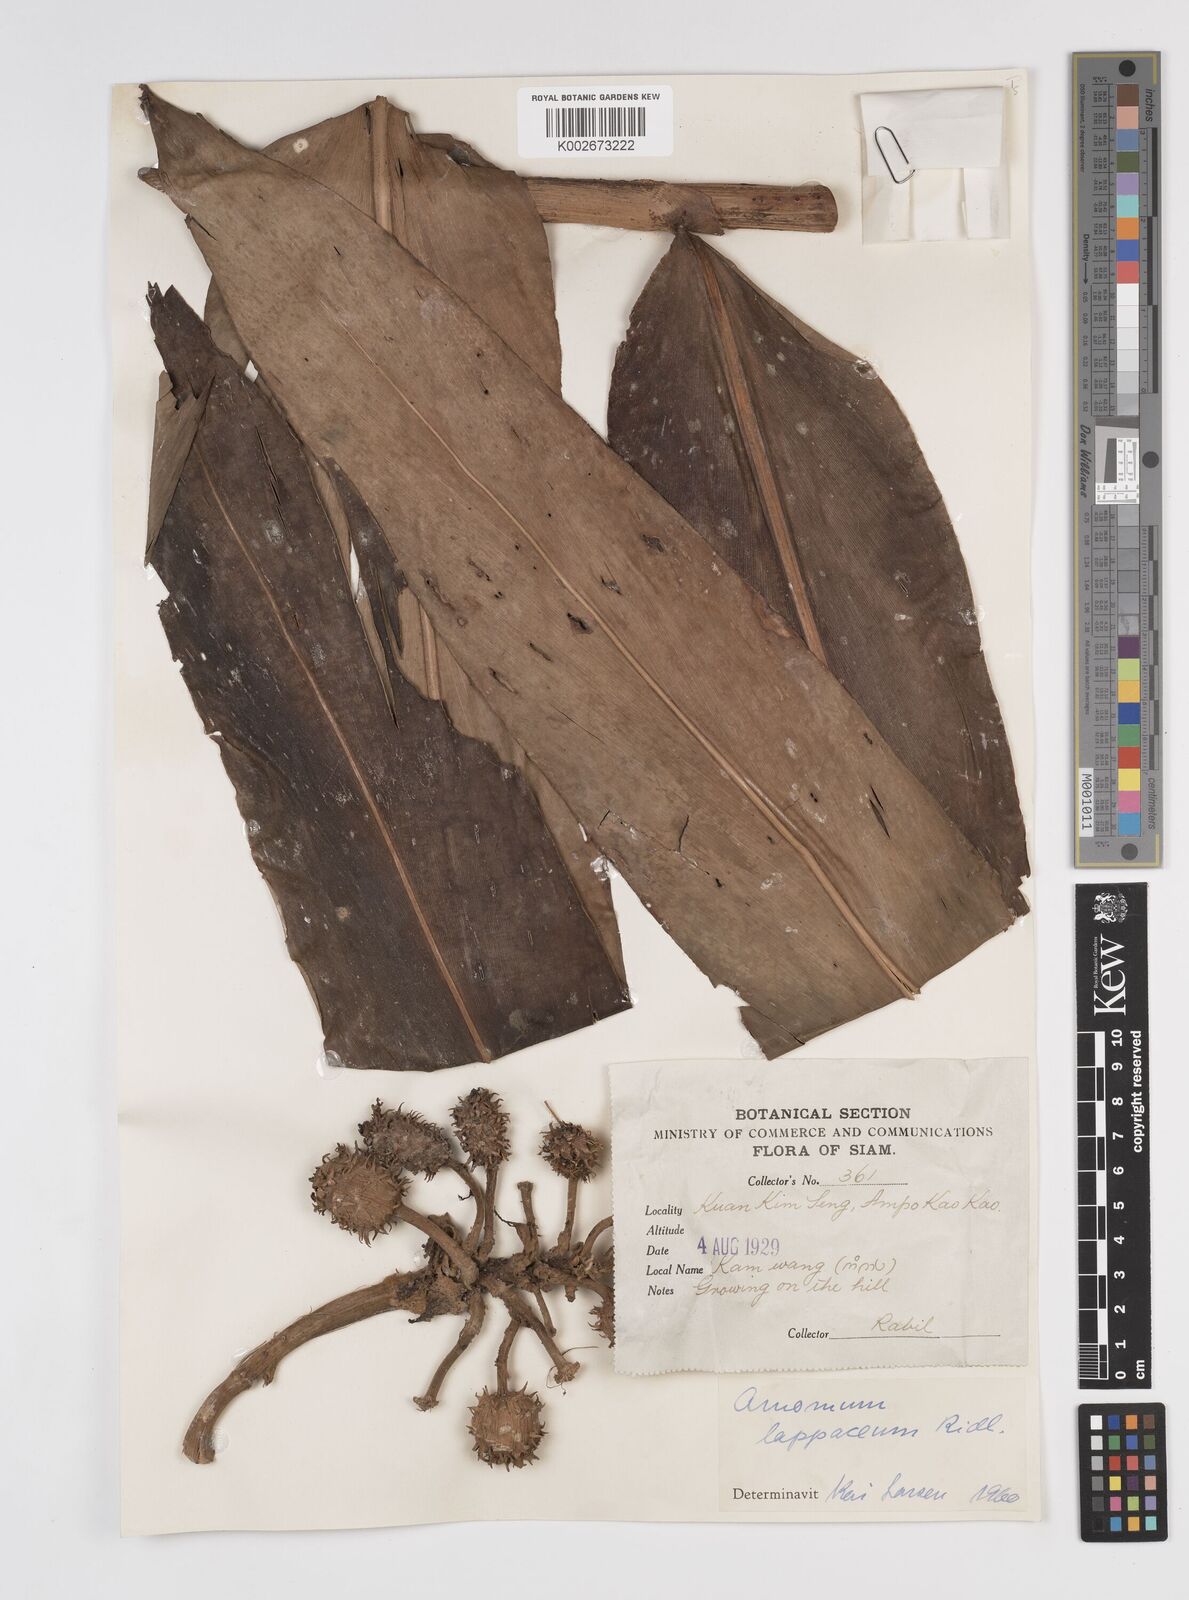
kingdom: Plantae
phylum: Tracheophyta
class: Liliopsida
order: Zingiberales
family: Zingiberaceae
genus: Meistera
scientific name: Meistera lappacea
